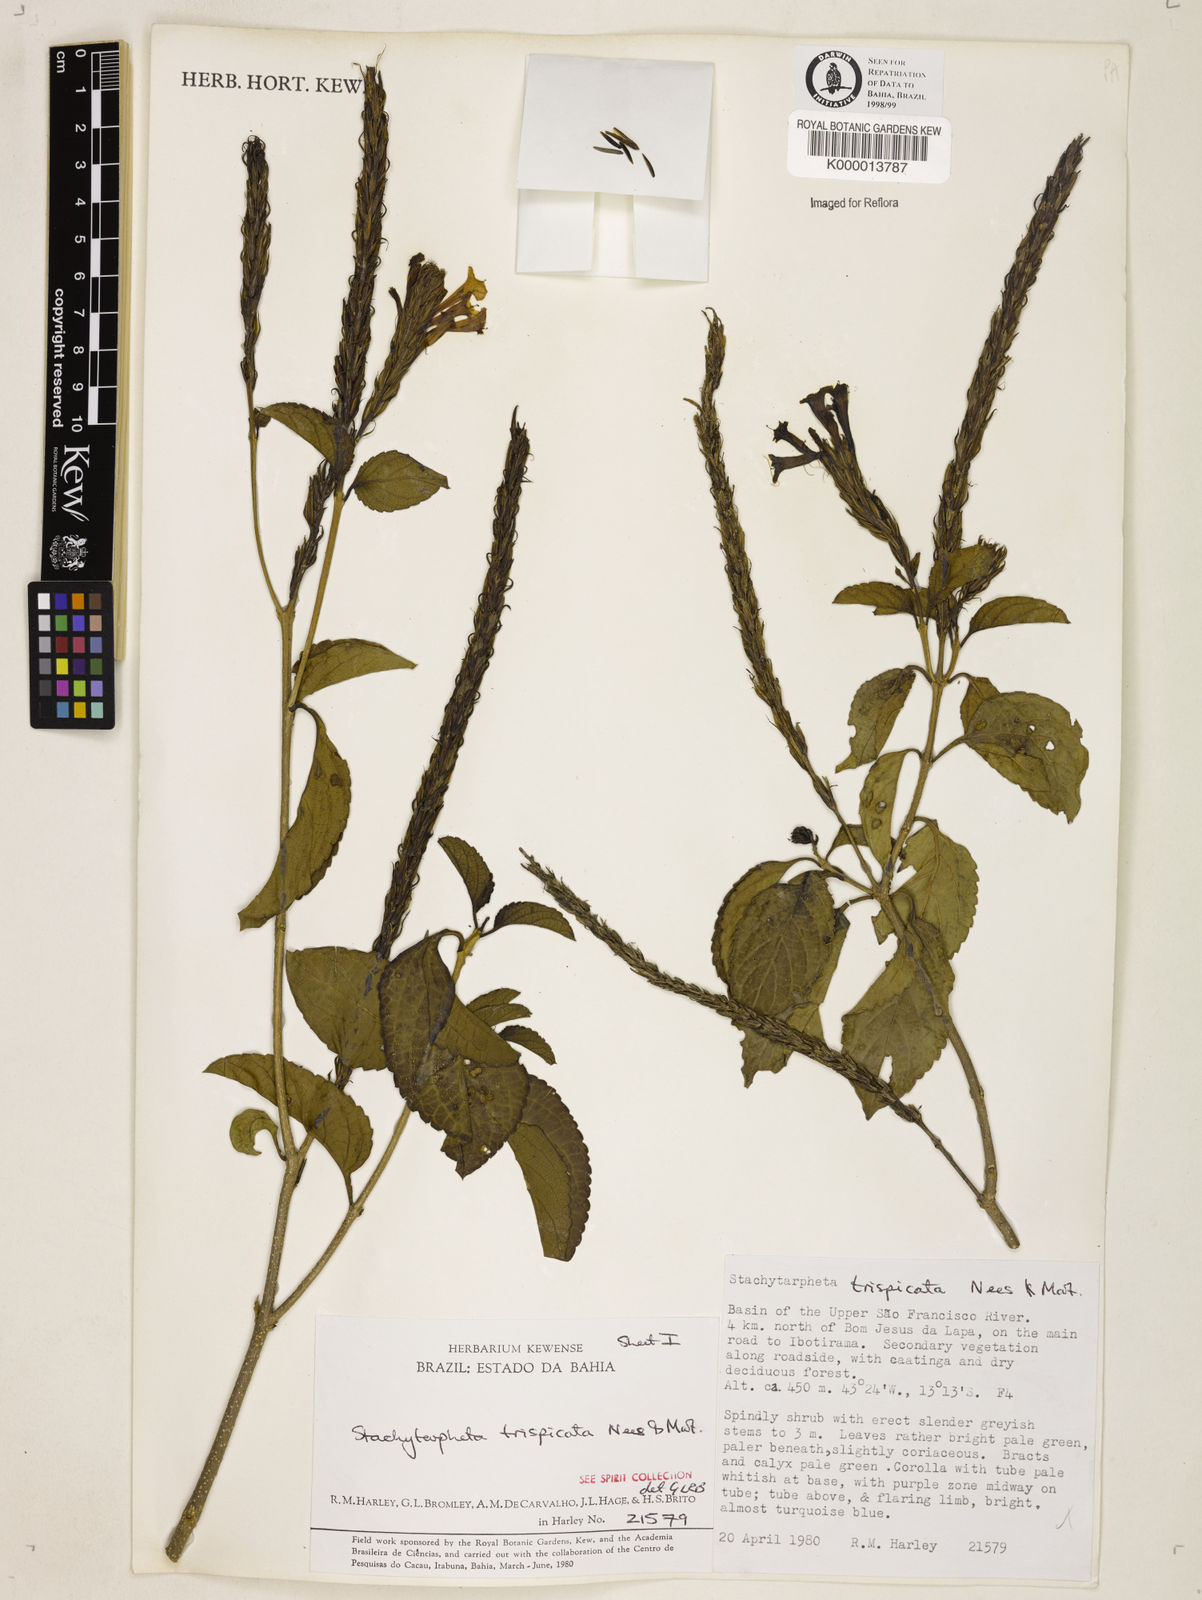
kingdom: Plantae
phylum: Tracheophyta
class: Magnoliopsida
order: Lamiales
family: Verbenaceae
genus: Stachytarpheta
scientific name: Stachytarpheta trispicata
